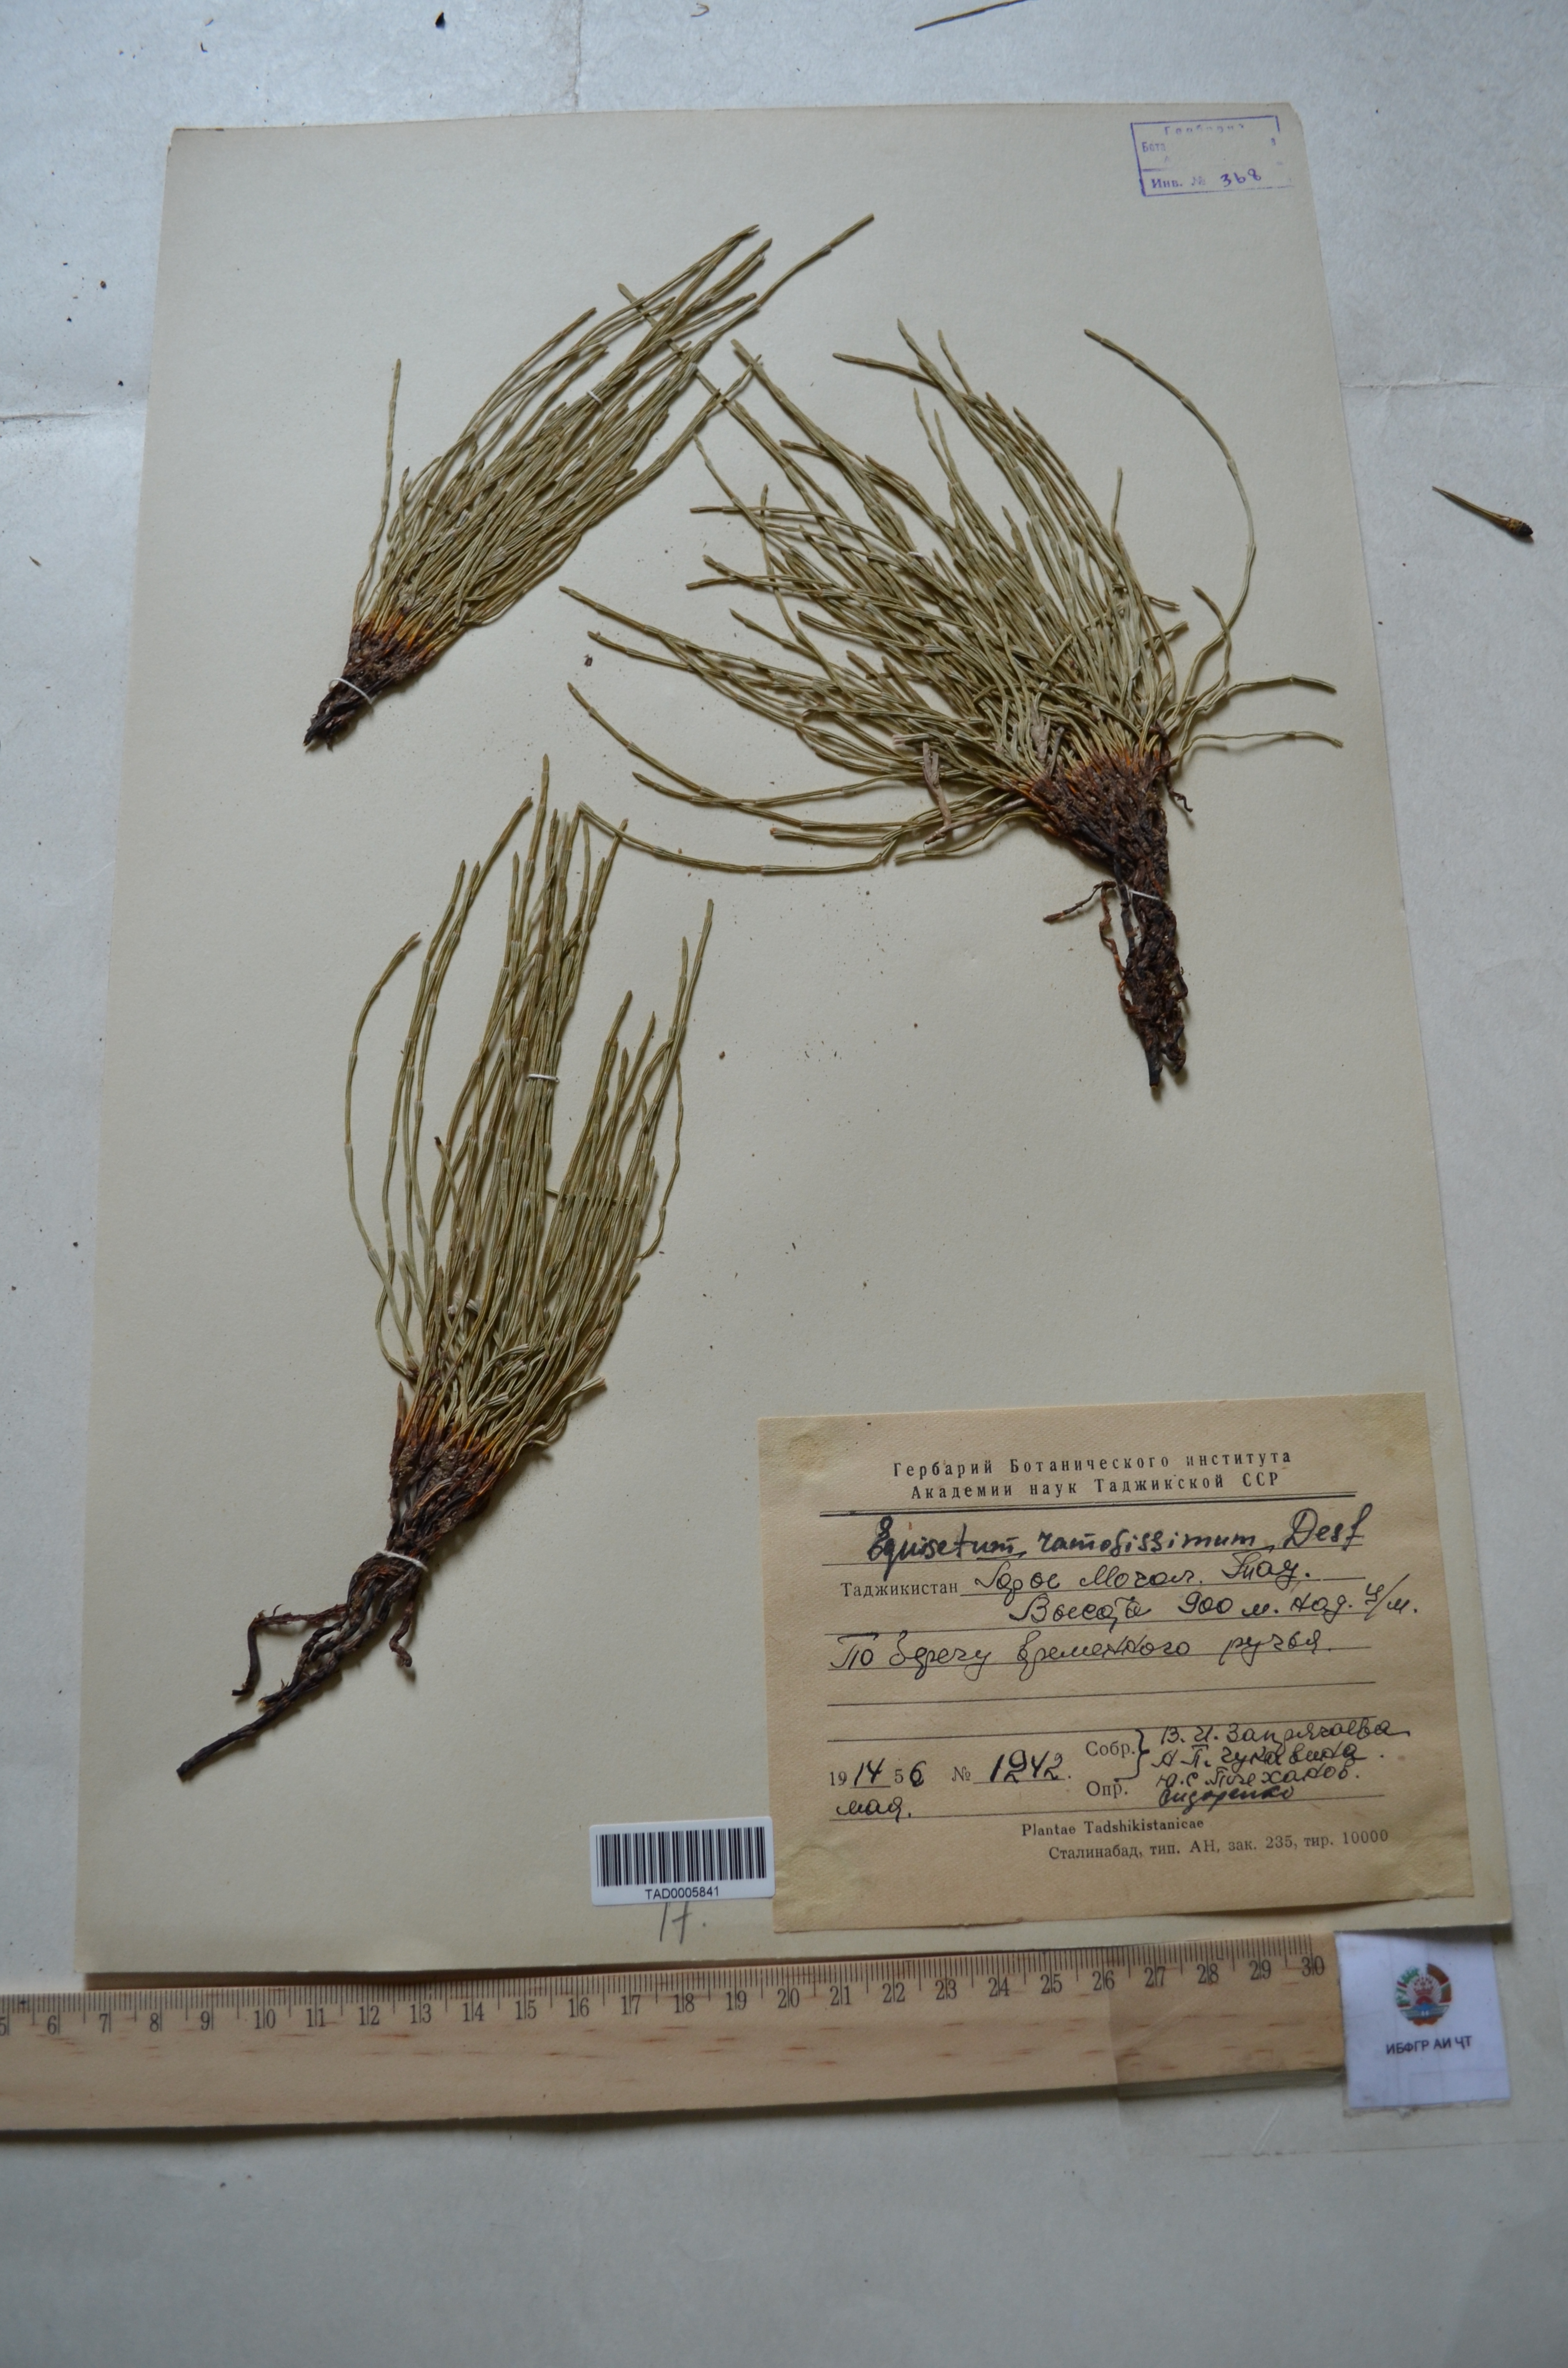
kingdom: Plantae
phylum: Tracheophyta
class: Polypodiopsida
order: Equisetales
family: Equisetaceae
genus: Equisetum
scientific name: Equisetum ramosissimum
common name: Branched horsetail
